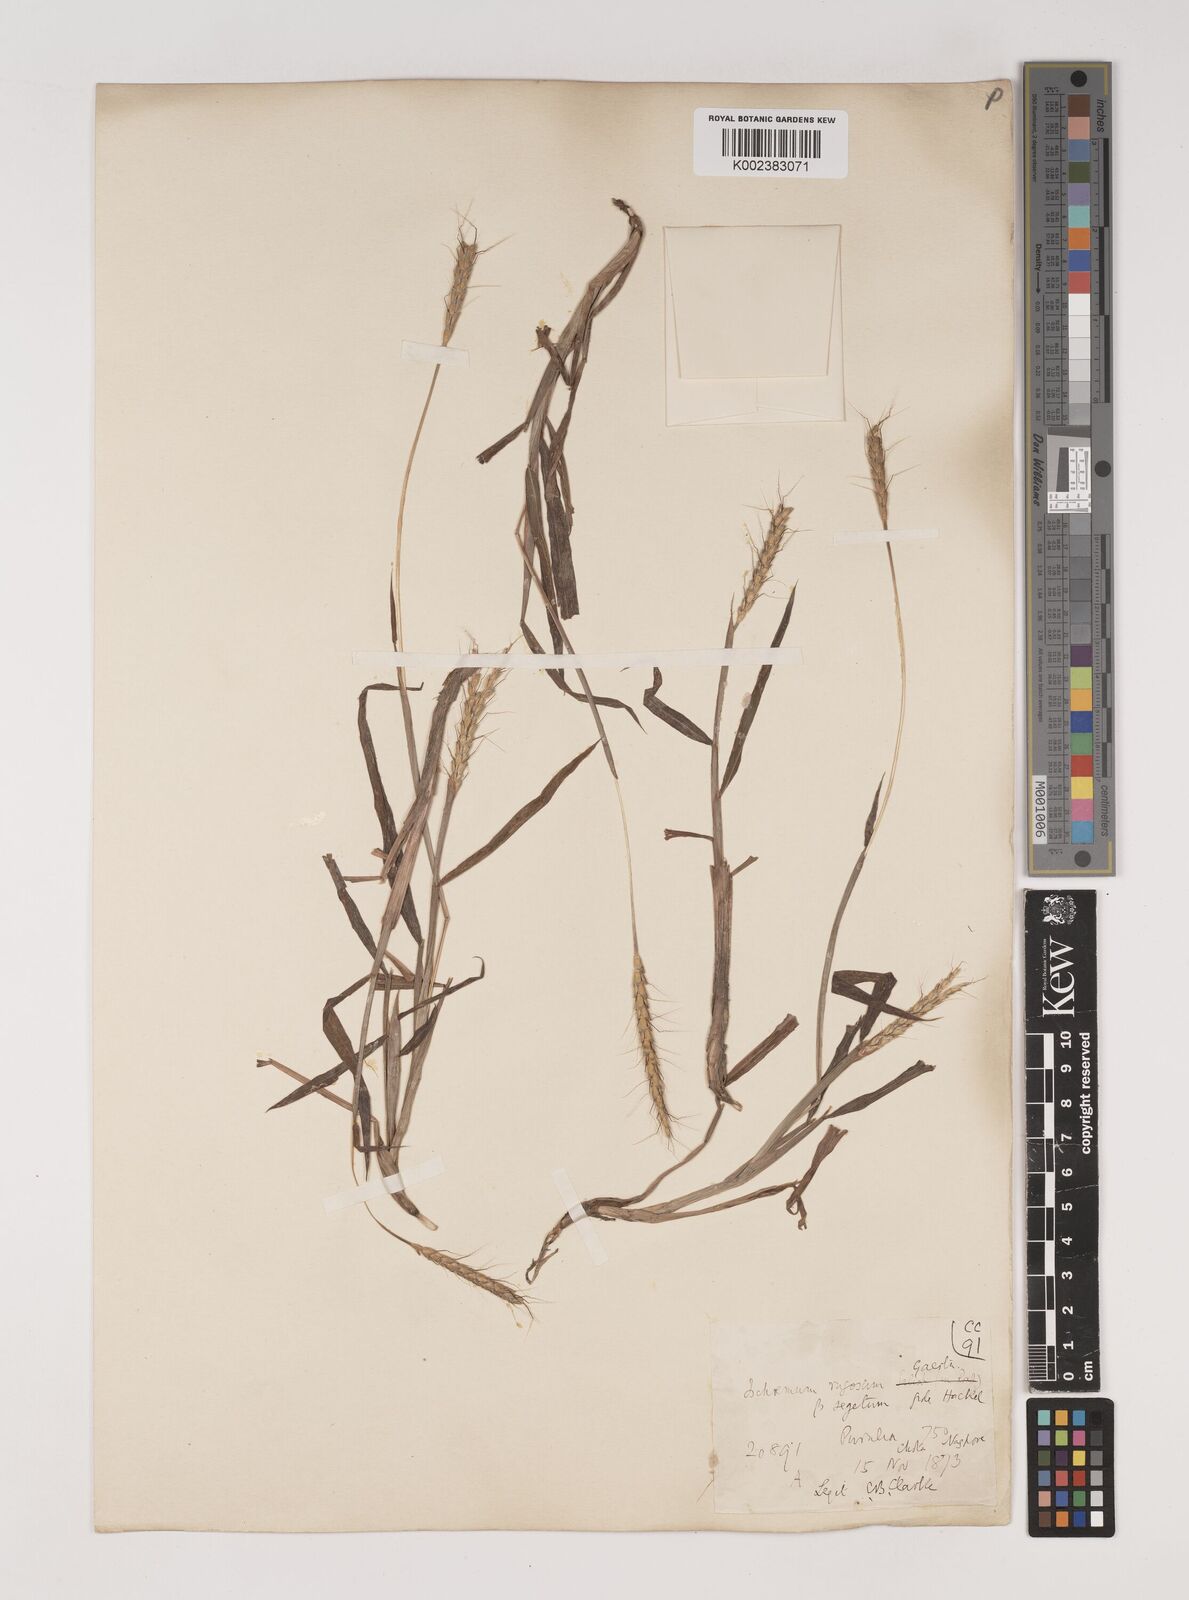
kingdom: Plantae
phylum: Tracheophyta
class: Liliopsida
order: Poales
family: Poaceae
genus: Ischaemum
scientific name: Ischaemum rugosum
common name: Saramatta grass
